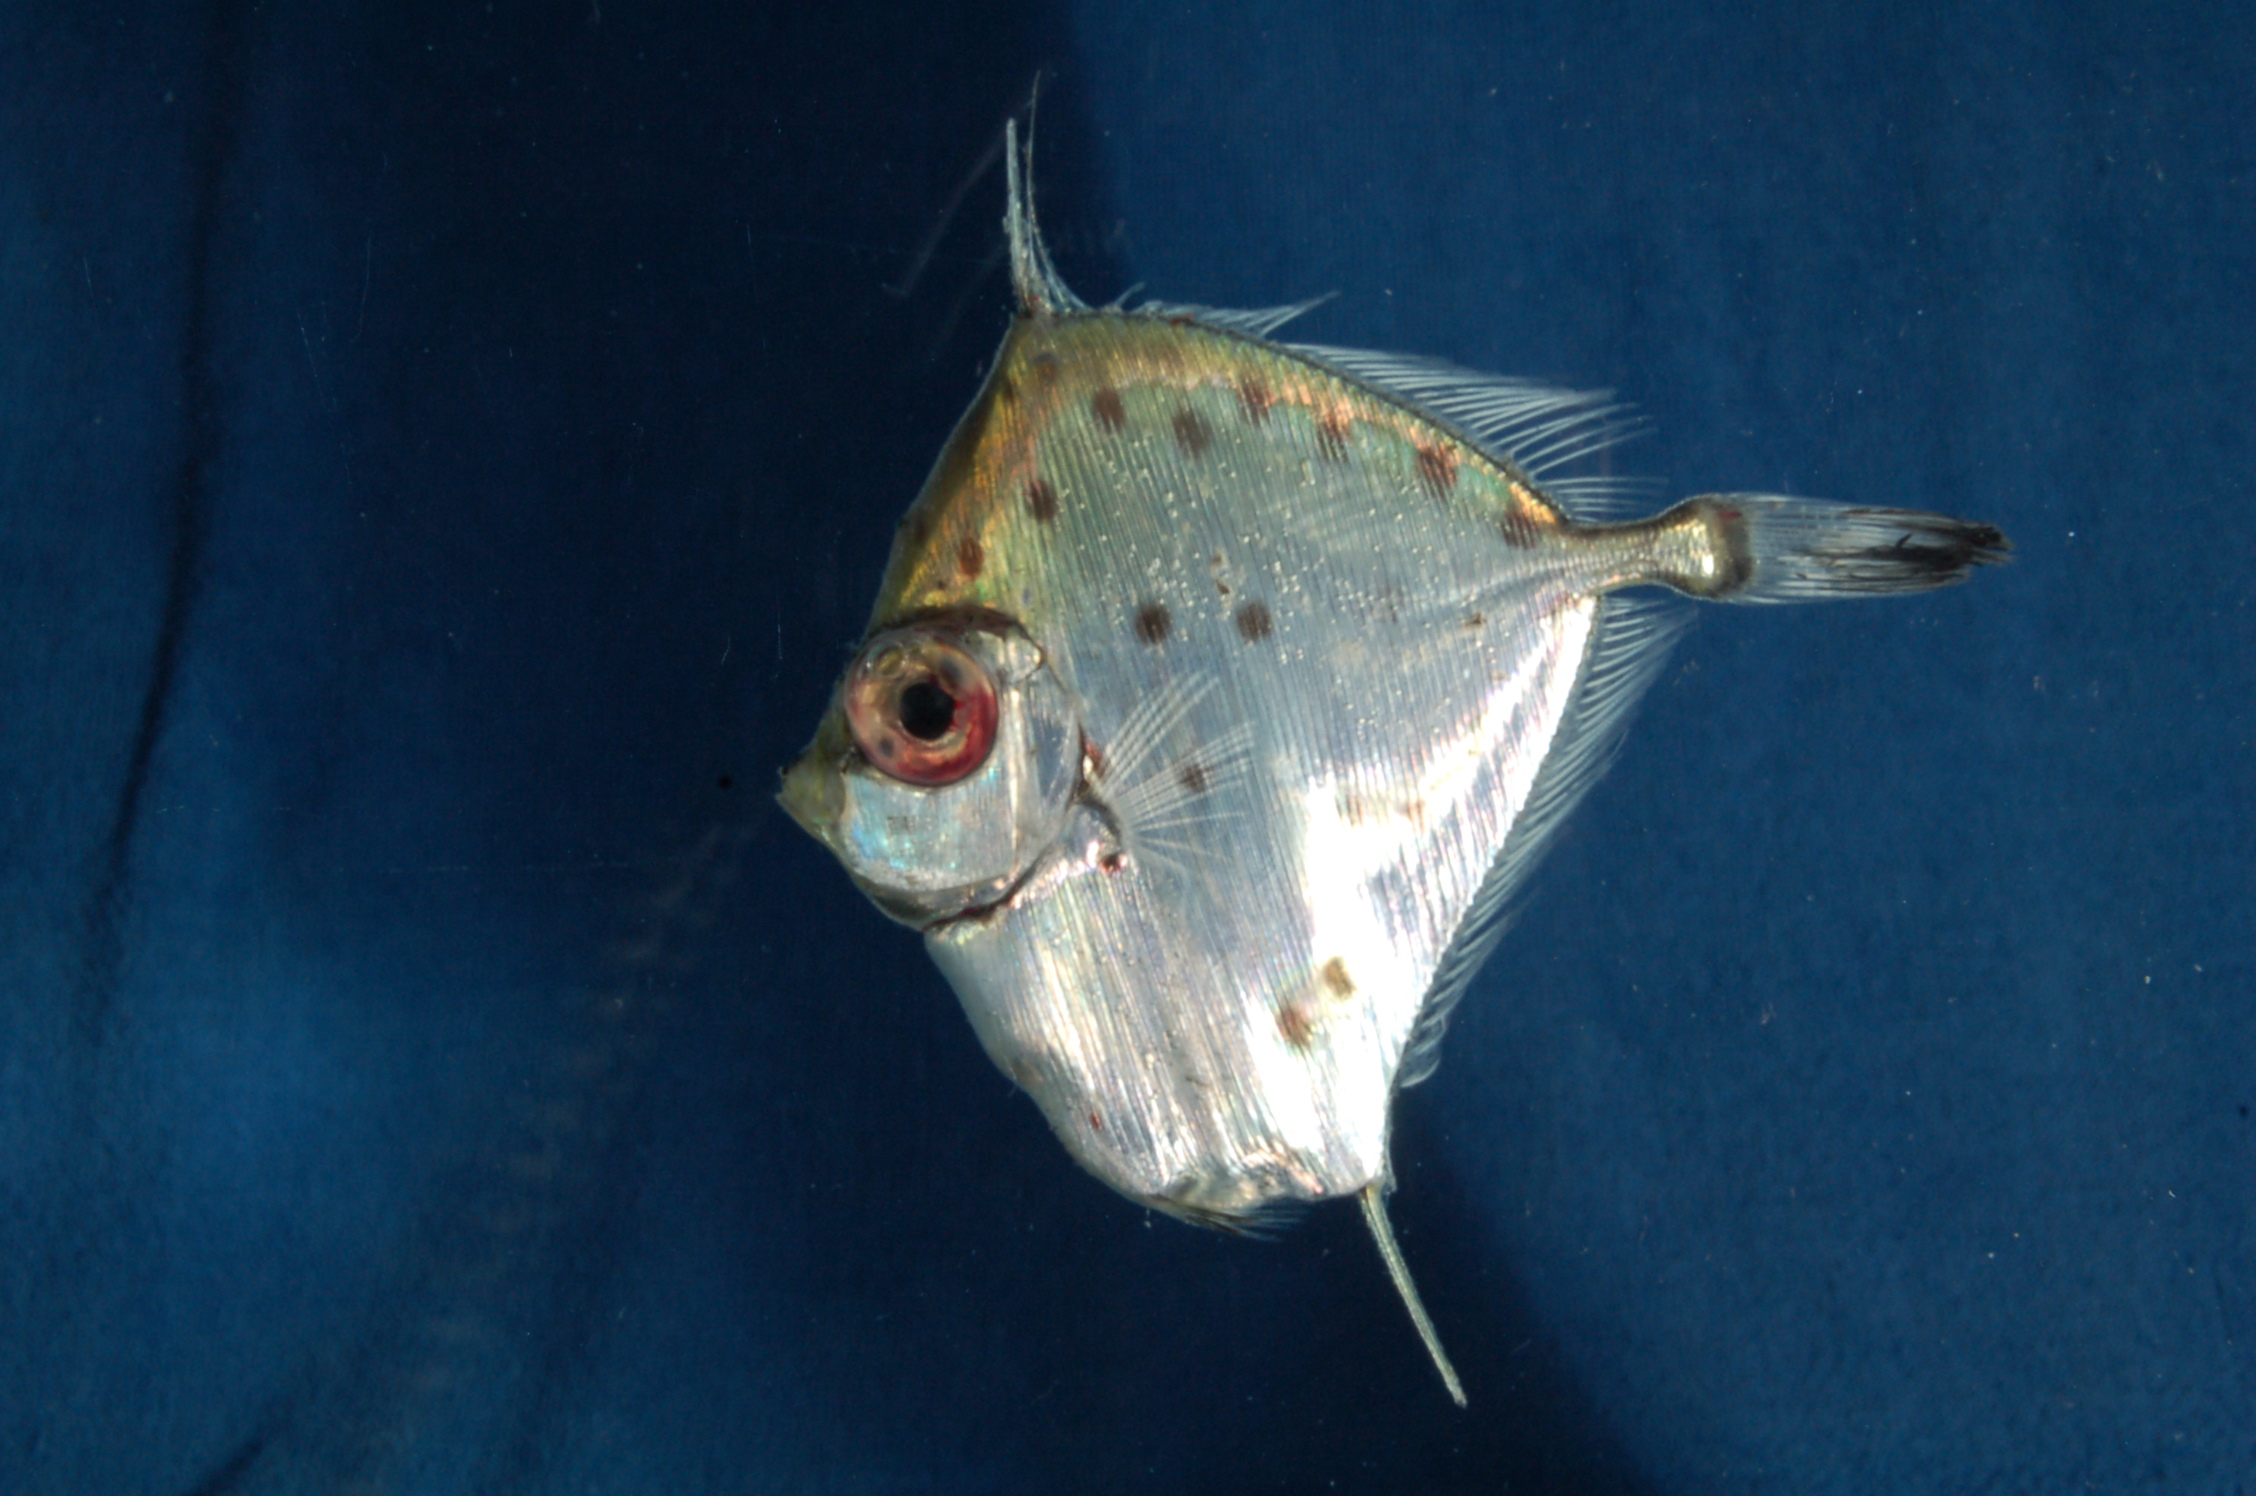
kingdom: Animalia
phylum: Chordata
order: Zeiformes
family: Grammicolepididae
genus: Xenolepidichthys
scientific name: Xenolepidichthys dalgleishi
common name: Spotted tinselfish
